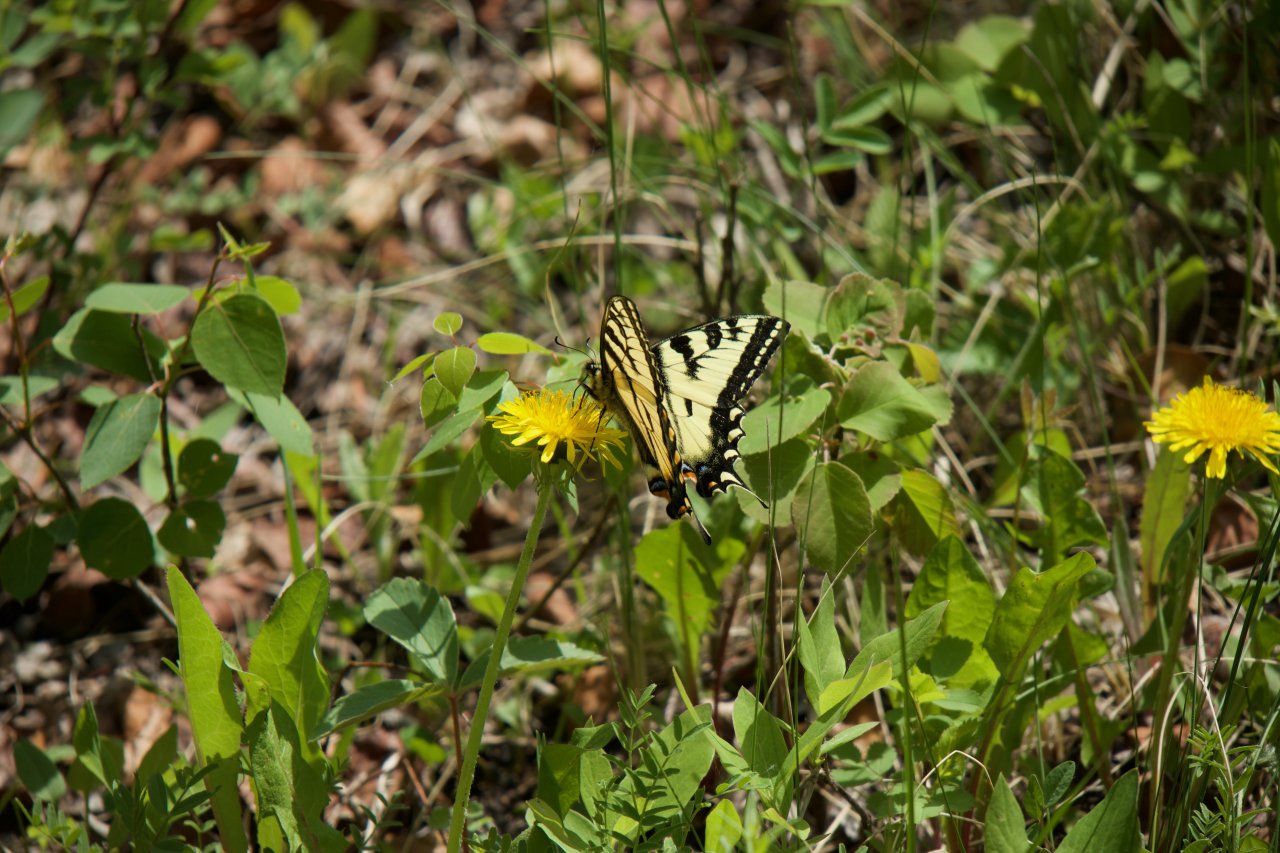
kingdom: Animalia
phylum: Arthropoda
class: Insecta
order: Lepidoptera
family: Papilionidae
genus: Pterourus
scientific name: Pterourus canadensis
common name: Canadian Tiger Swallowtail
